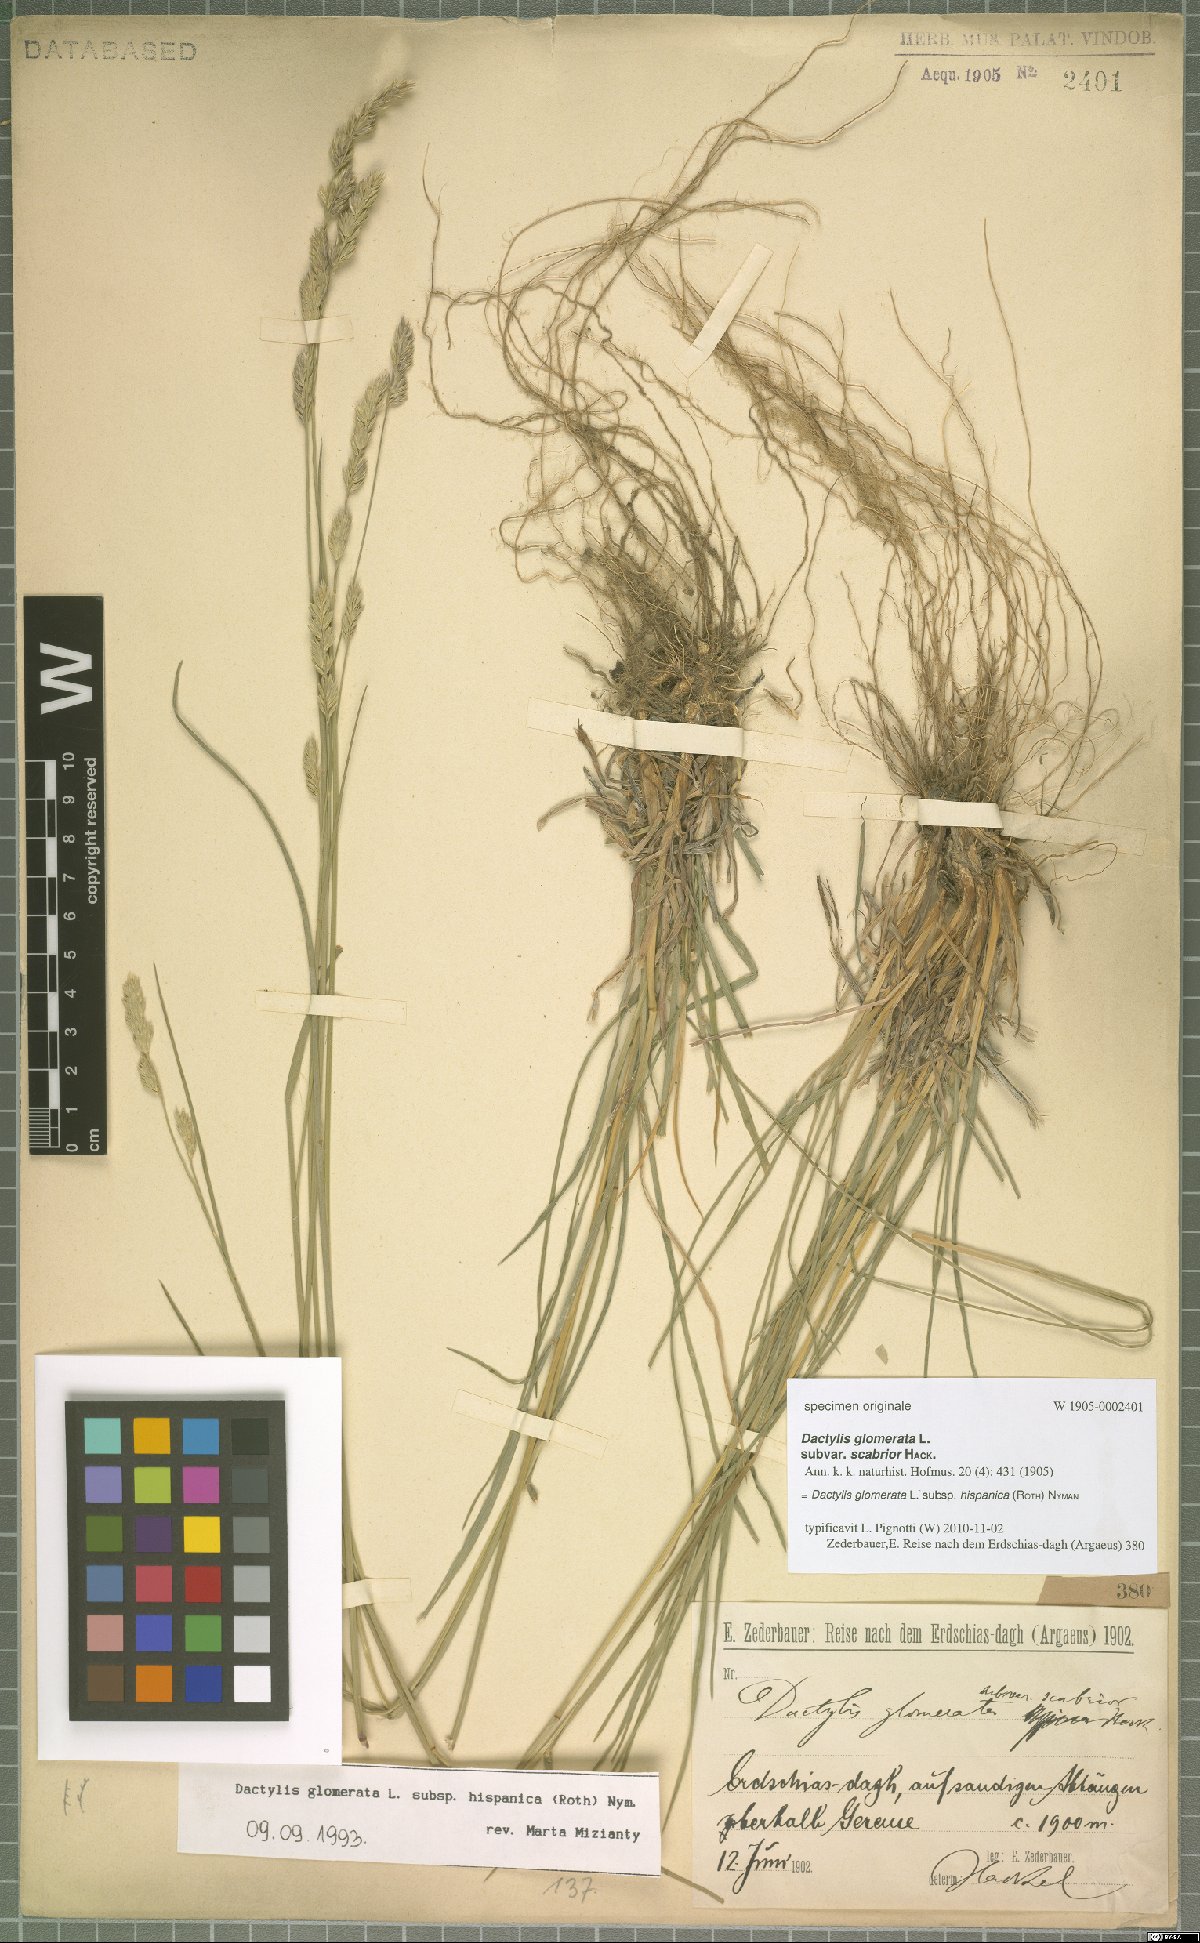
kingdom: Plantae
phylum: Tracheophyta
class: Liliopsida
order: Poales
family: Poaceae
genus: Dactylis
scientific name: Dactylis glomerata
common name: Orchardgrass
